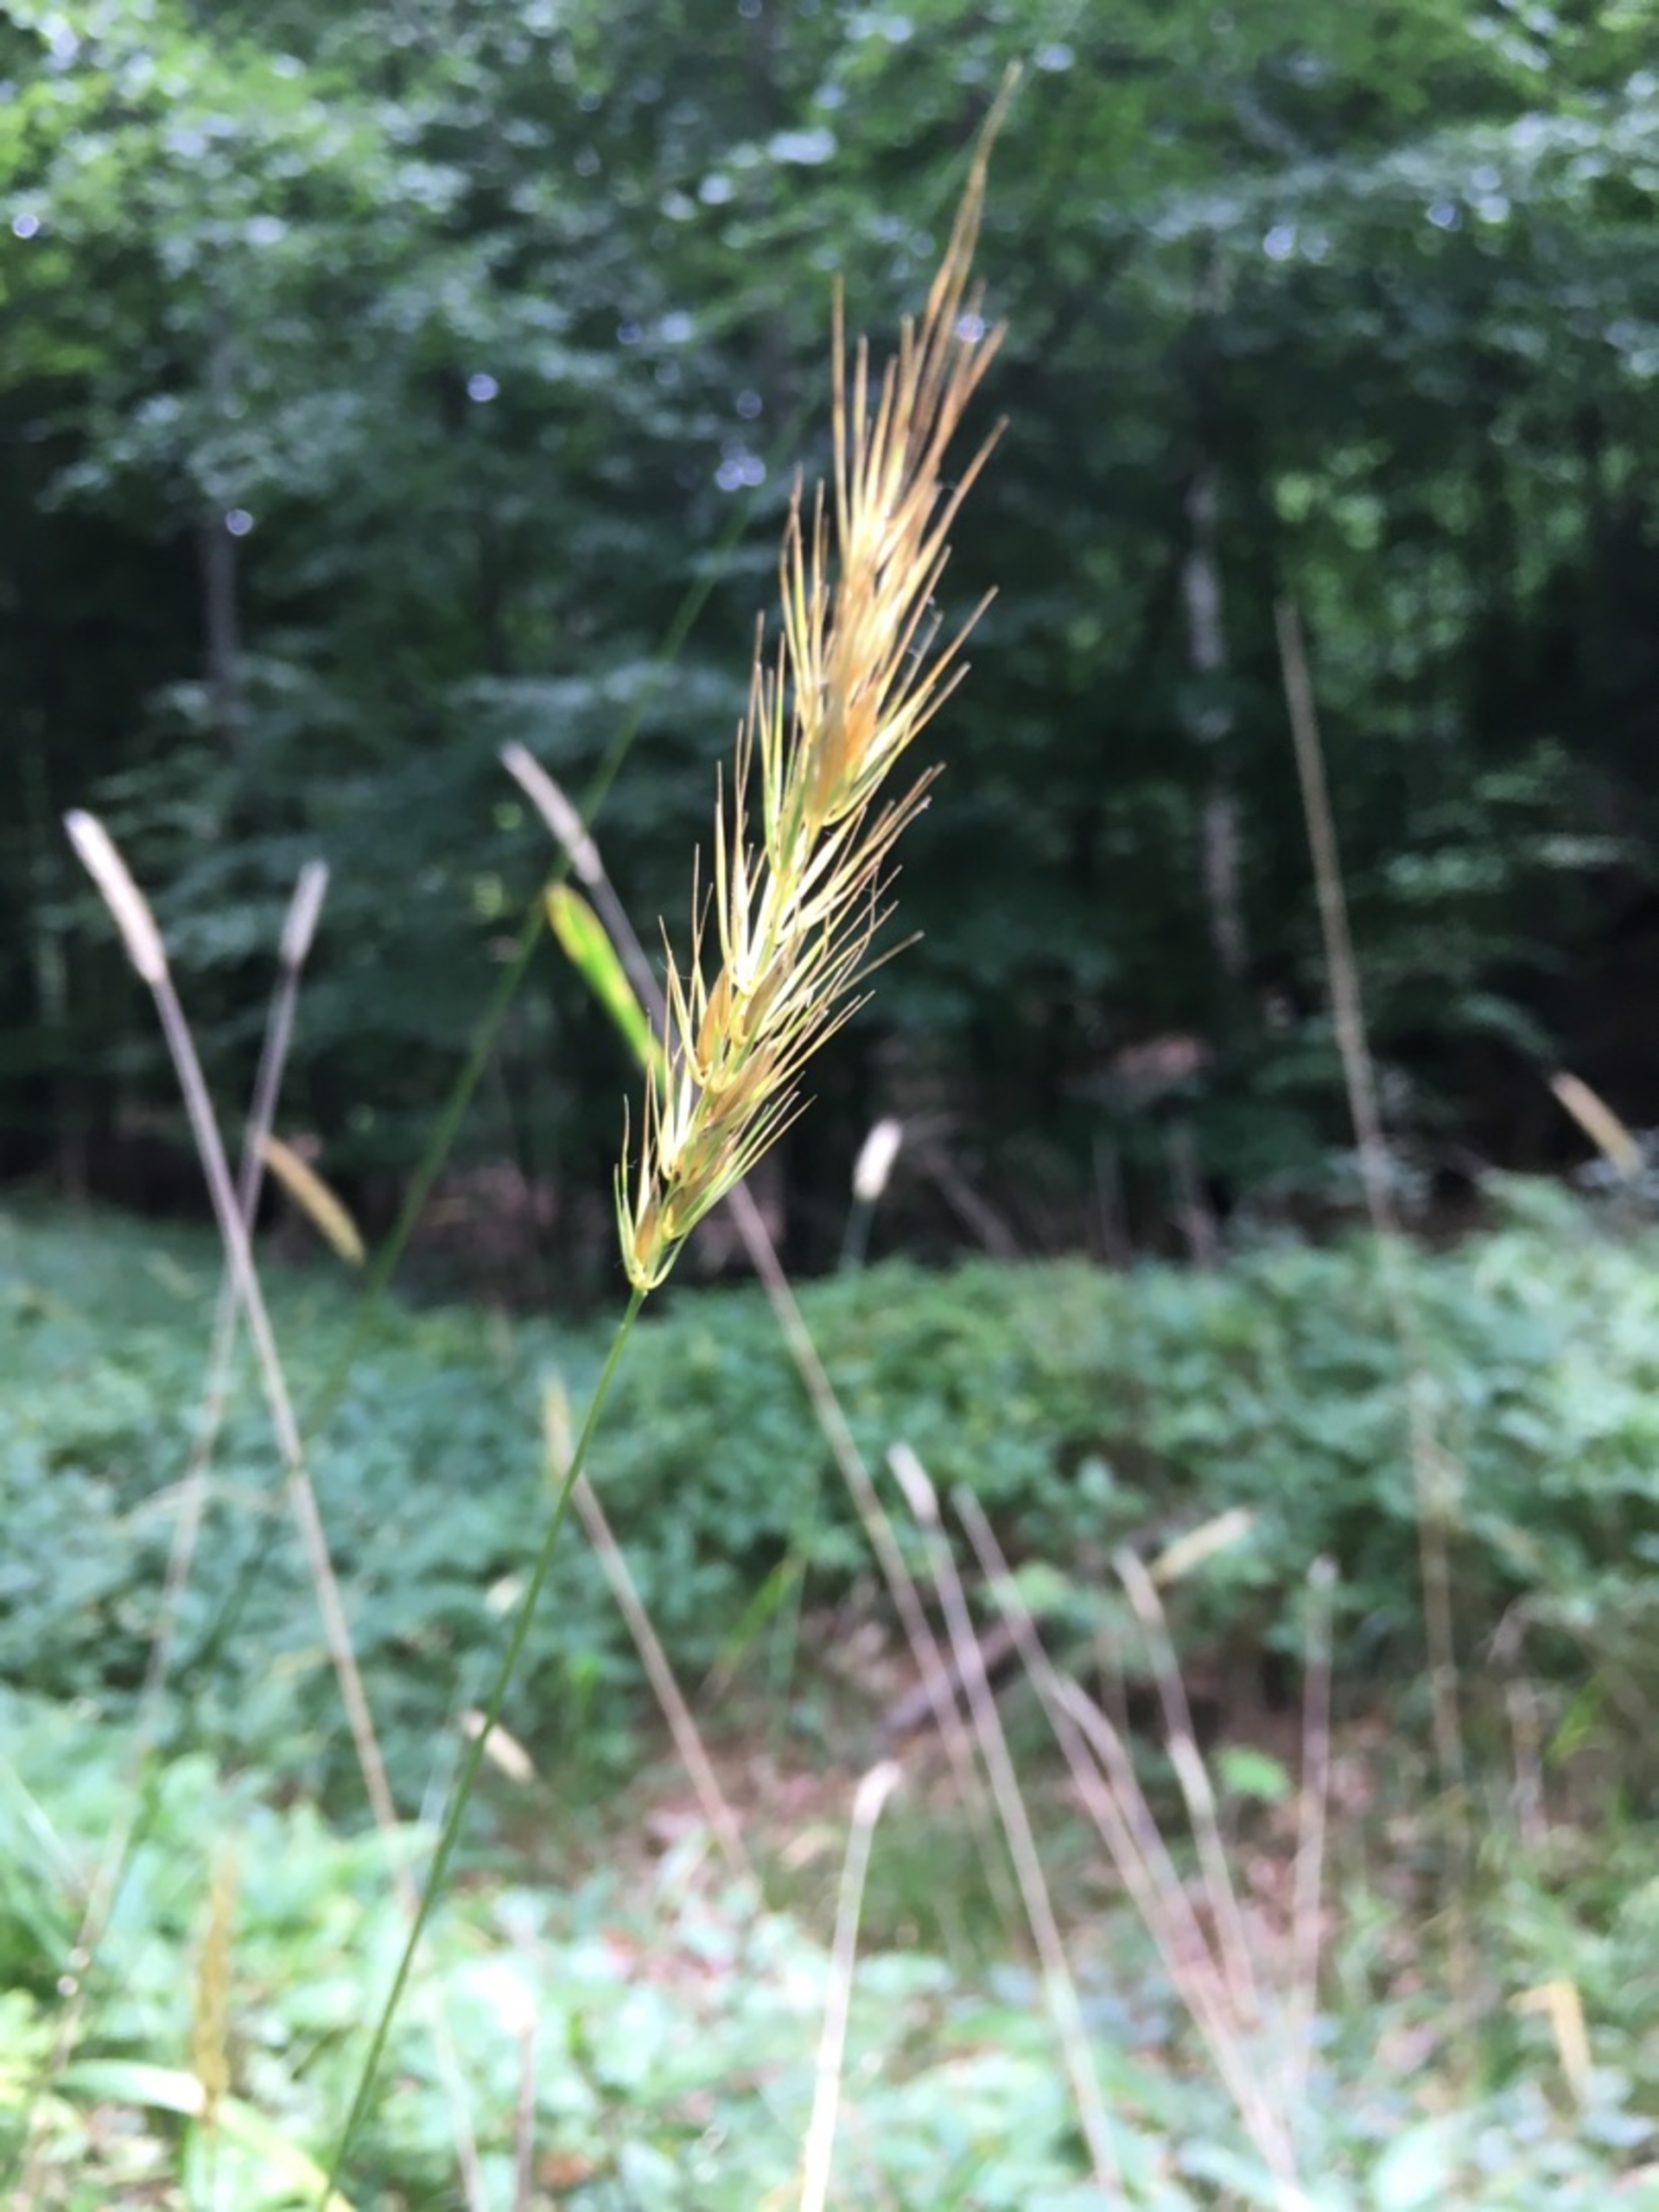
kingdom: Plantae
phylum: Tracheophyta
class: Liliopsida
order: Poales
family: Poaceae
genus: Hordelymus
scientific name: Hordelymus europaeus
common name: Skovbyg
